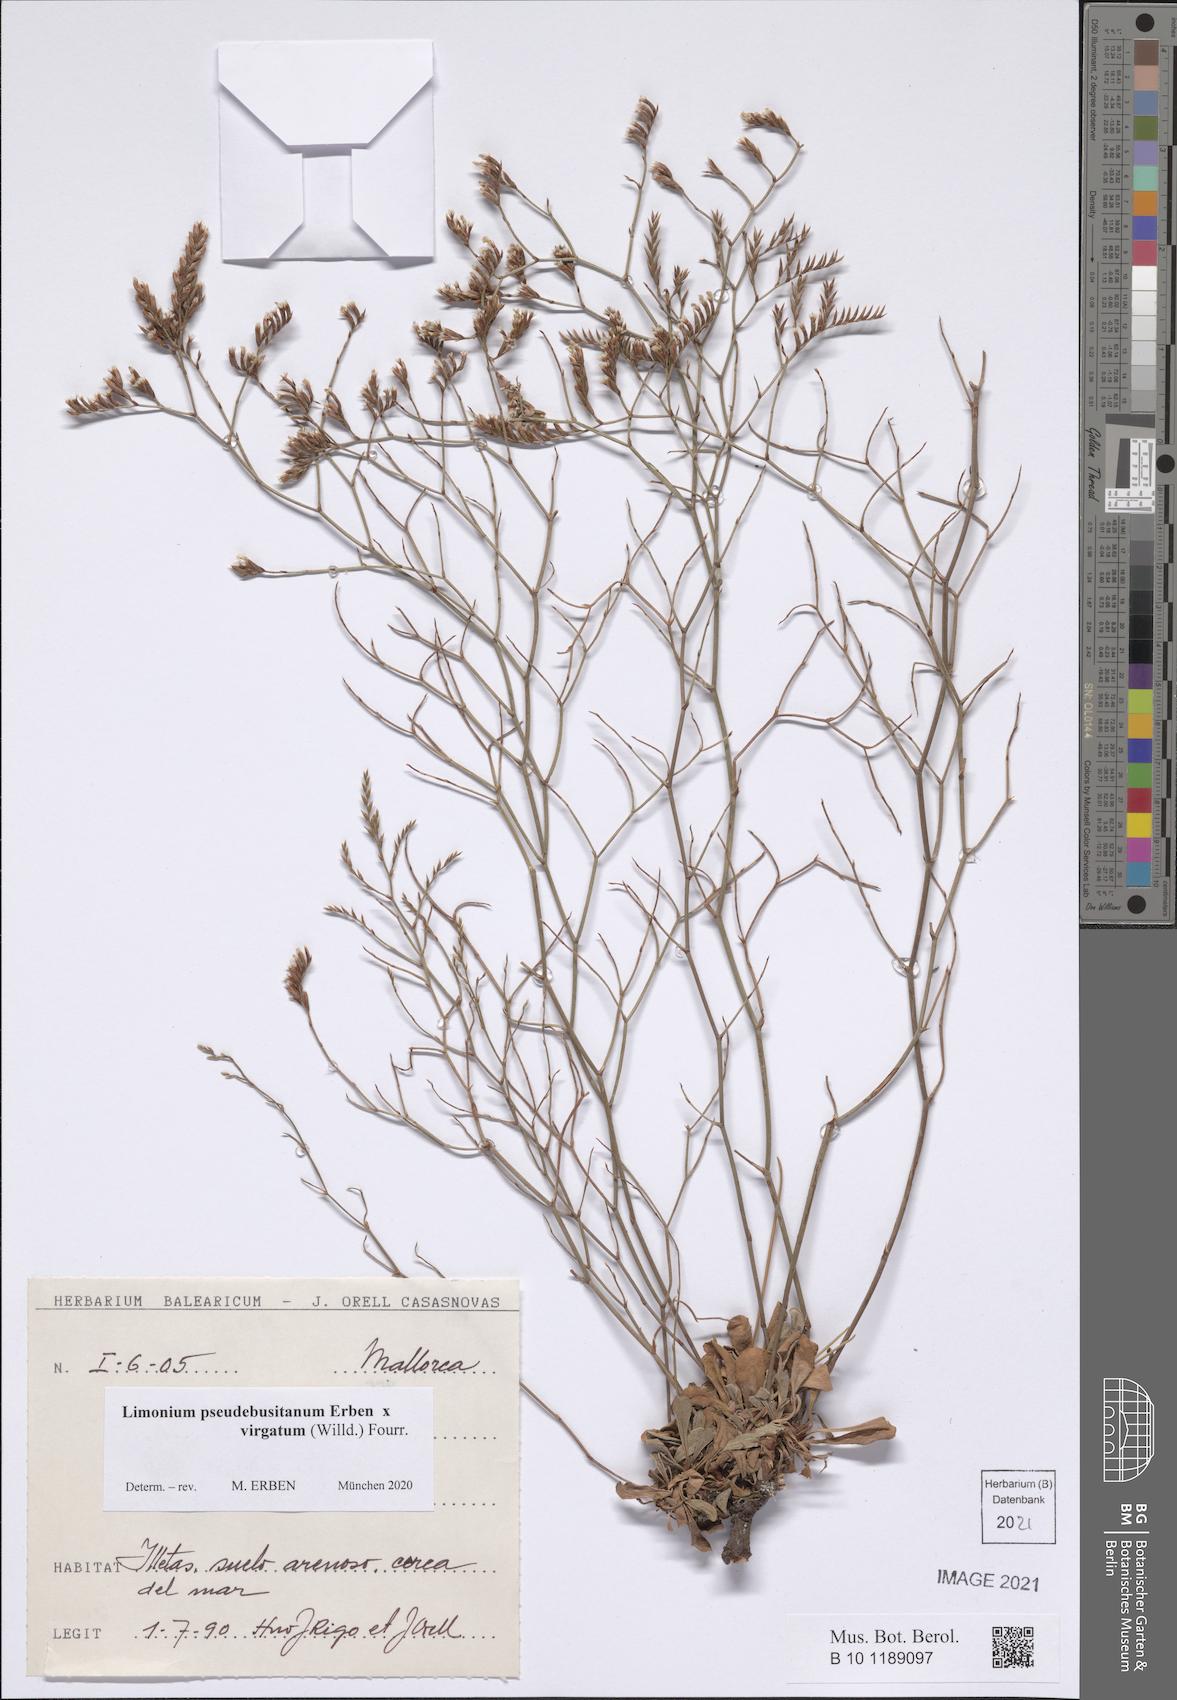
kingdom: Plantae
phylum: Tracheophyta
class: Magnoliopsida
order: Caryophyllales
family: Plumbaginaceae
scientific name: Plumbaginaceae
